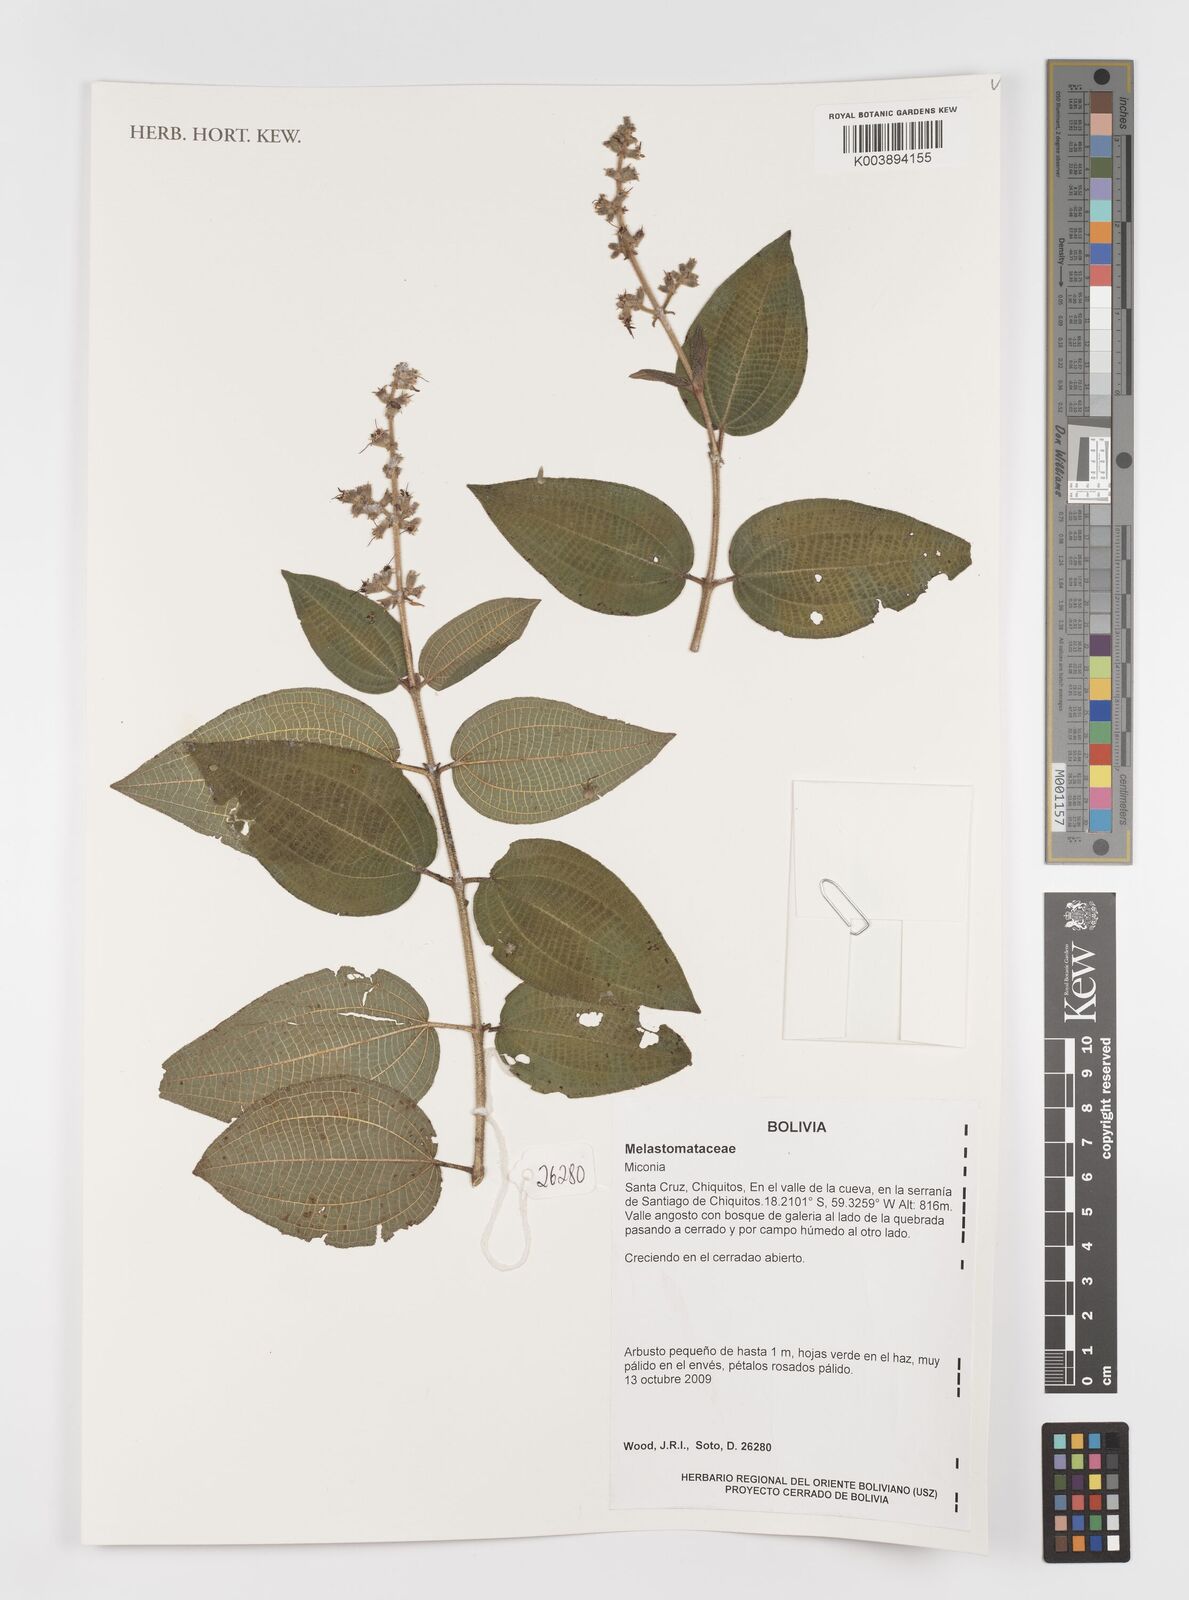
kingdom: Plantae
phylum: Tracheophyta
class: Magnoliopsida
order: Myrtales
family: Melastomataceae
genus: Miconia
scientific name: Miconia
